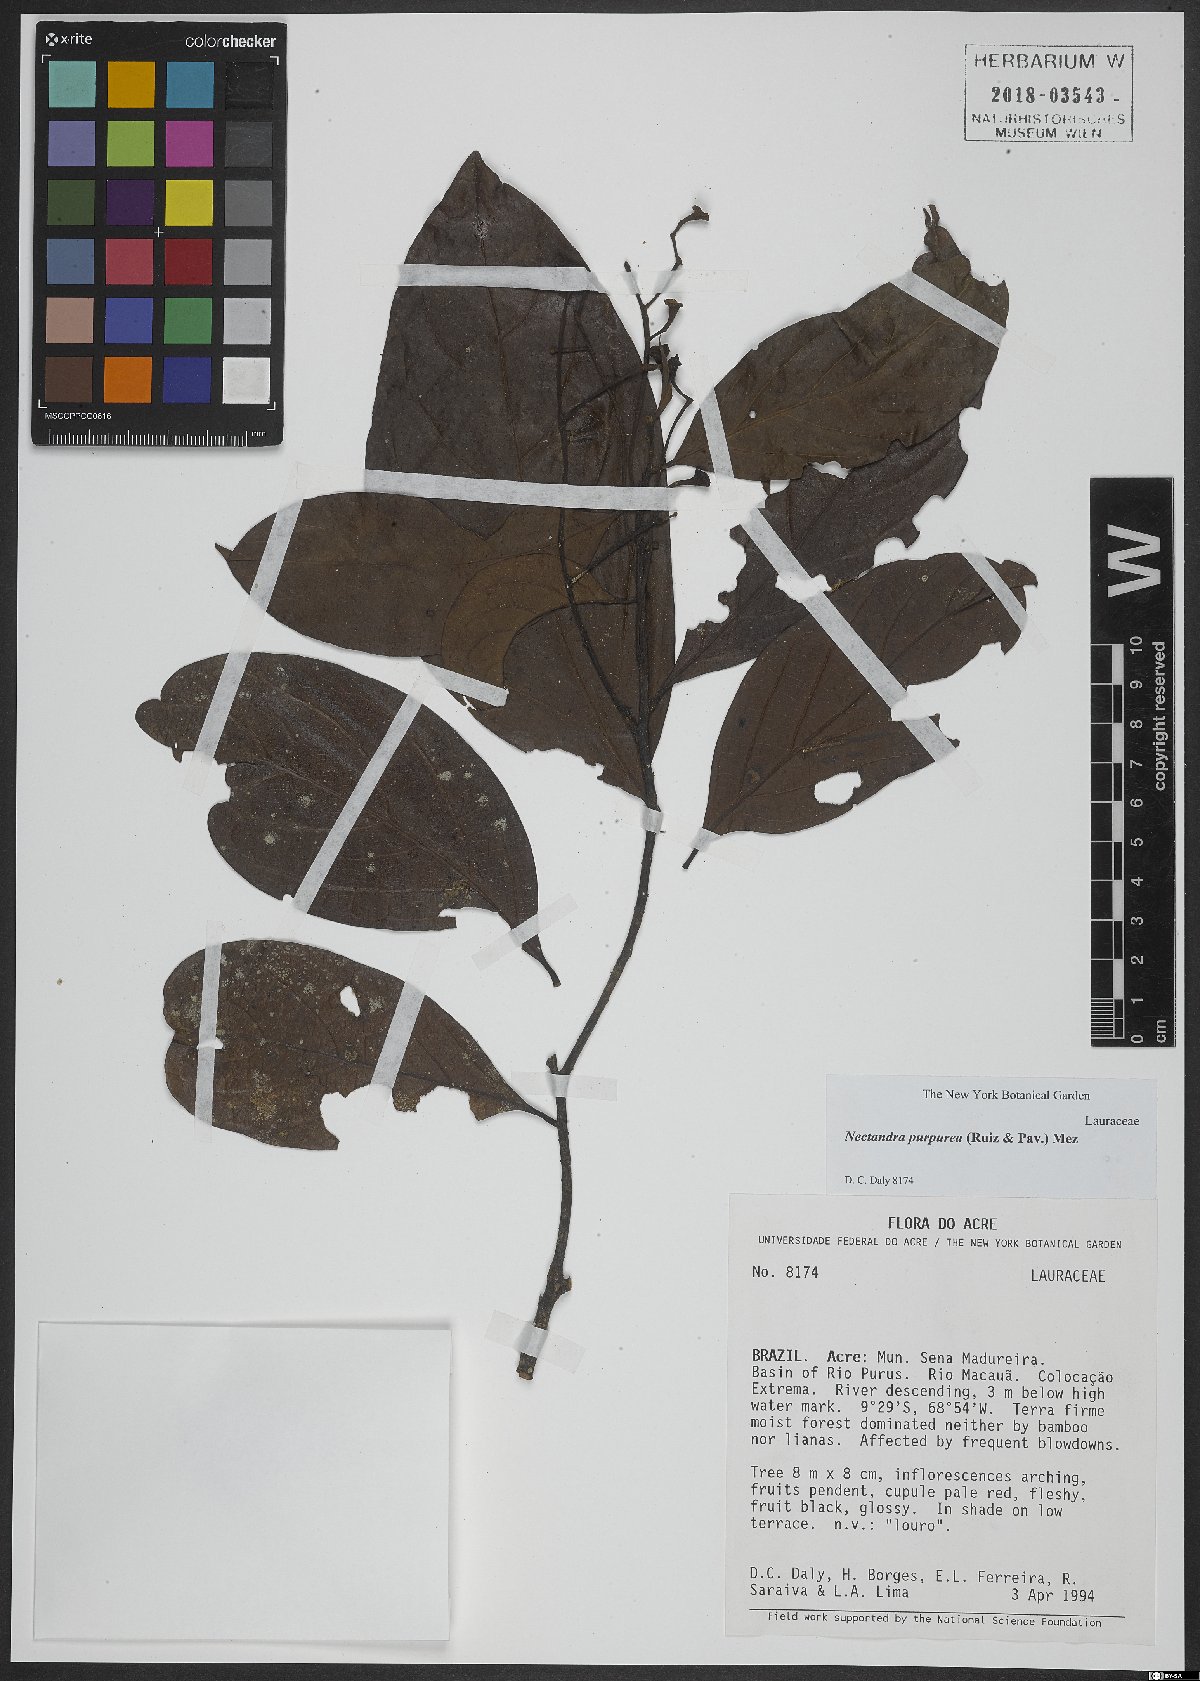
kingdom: Plantae
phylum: Tracheophyta
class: Magnoliopsida
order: Laurales
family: Lauraceae
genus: Damburneya
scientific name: Damburneya purpurea
